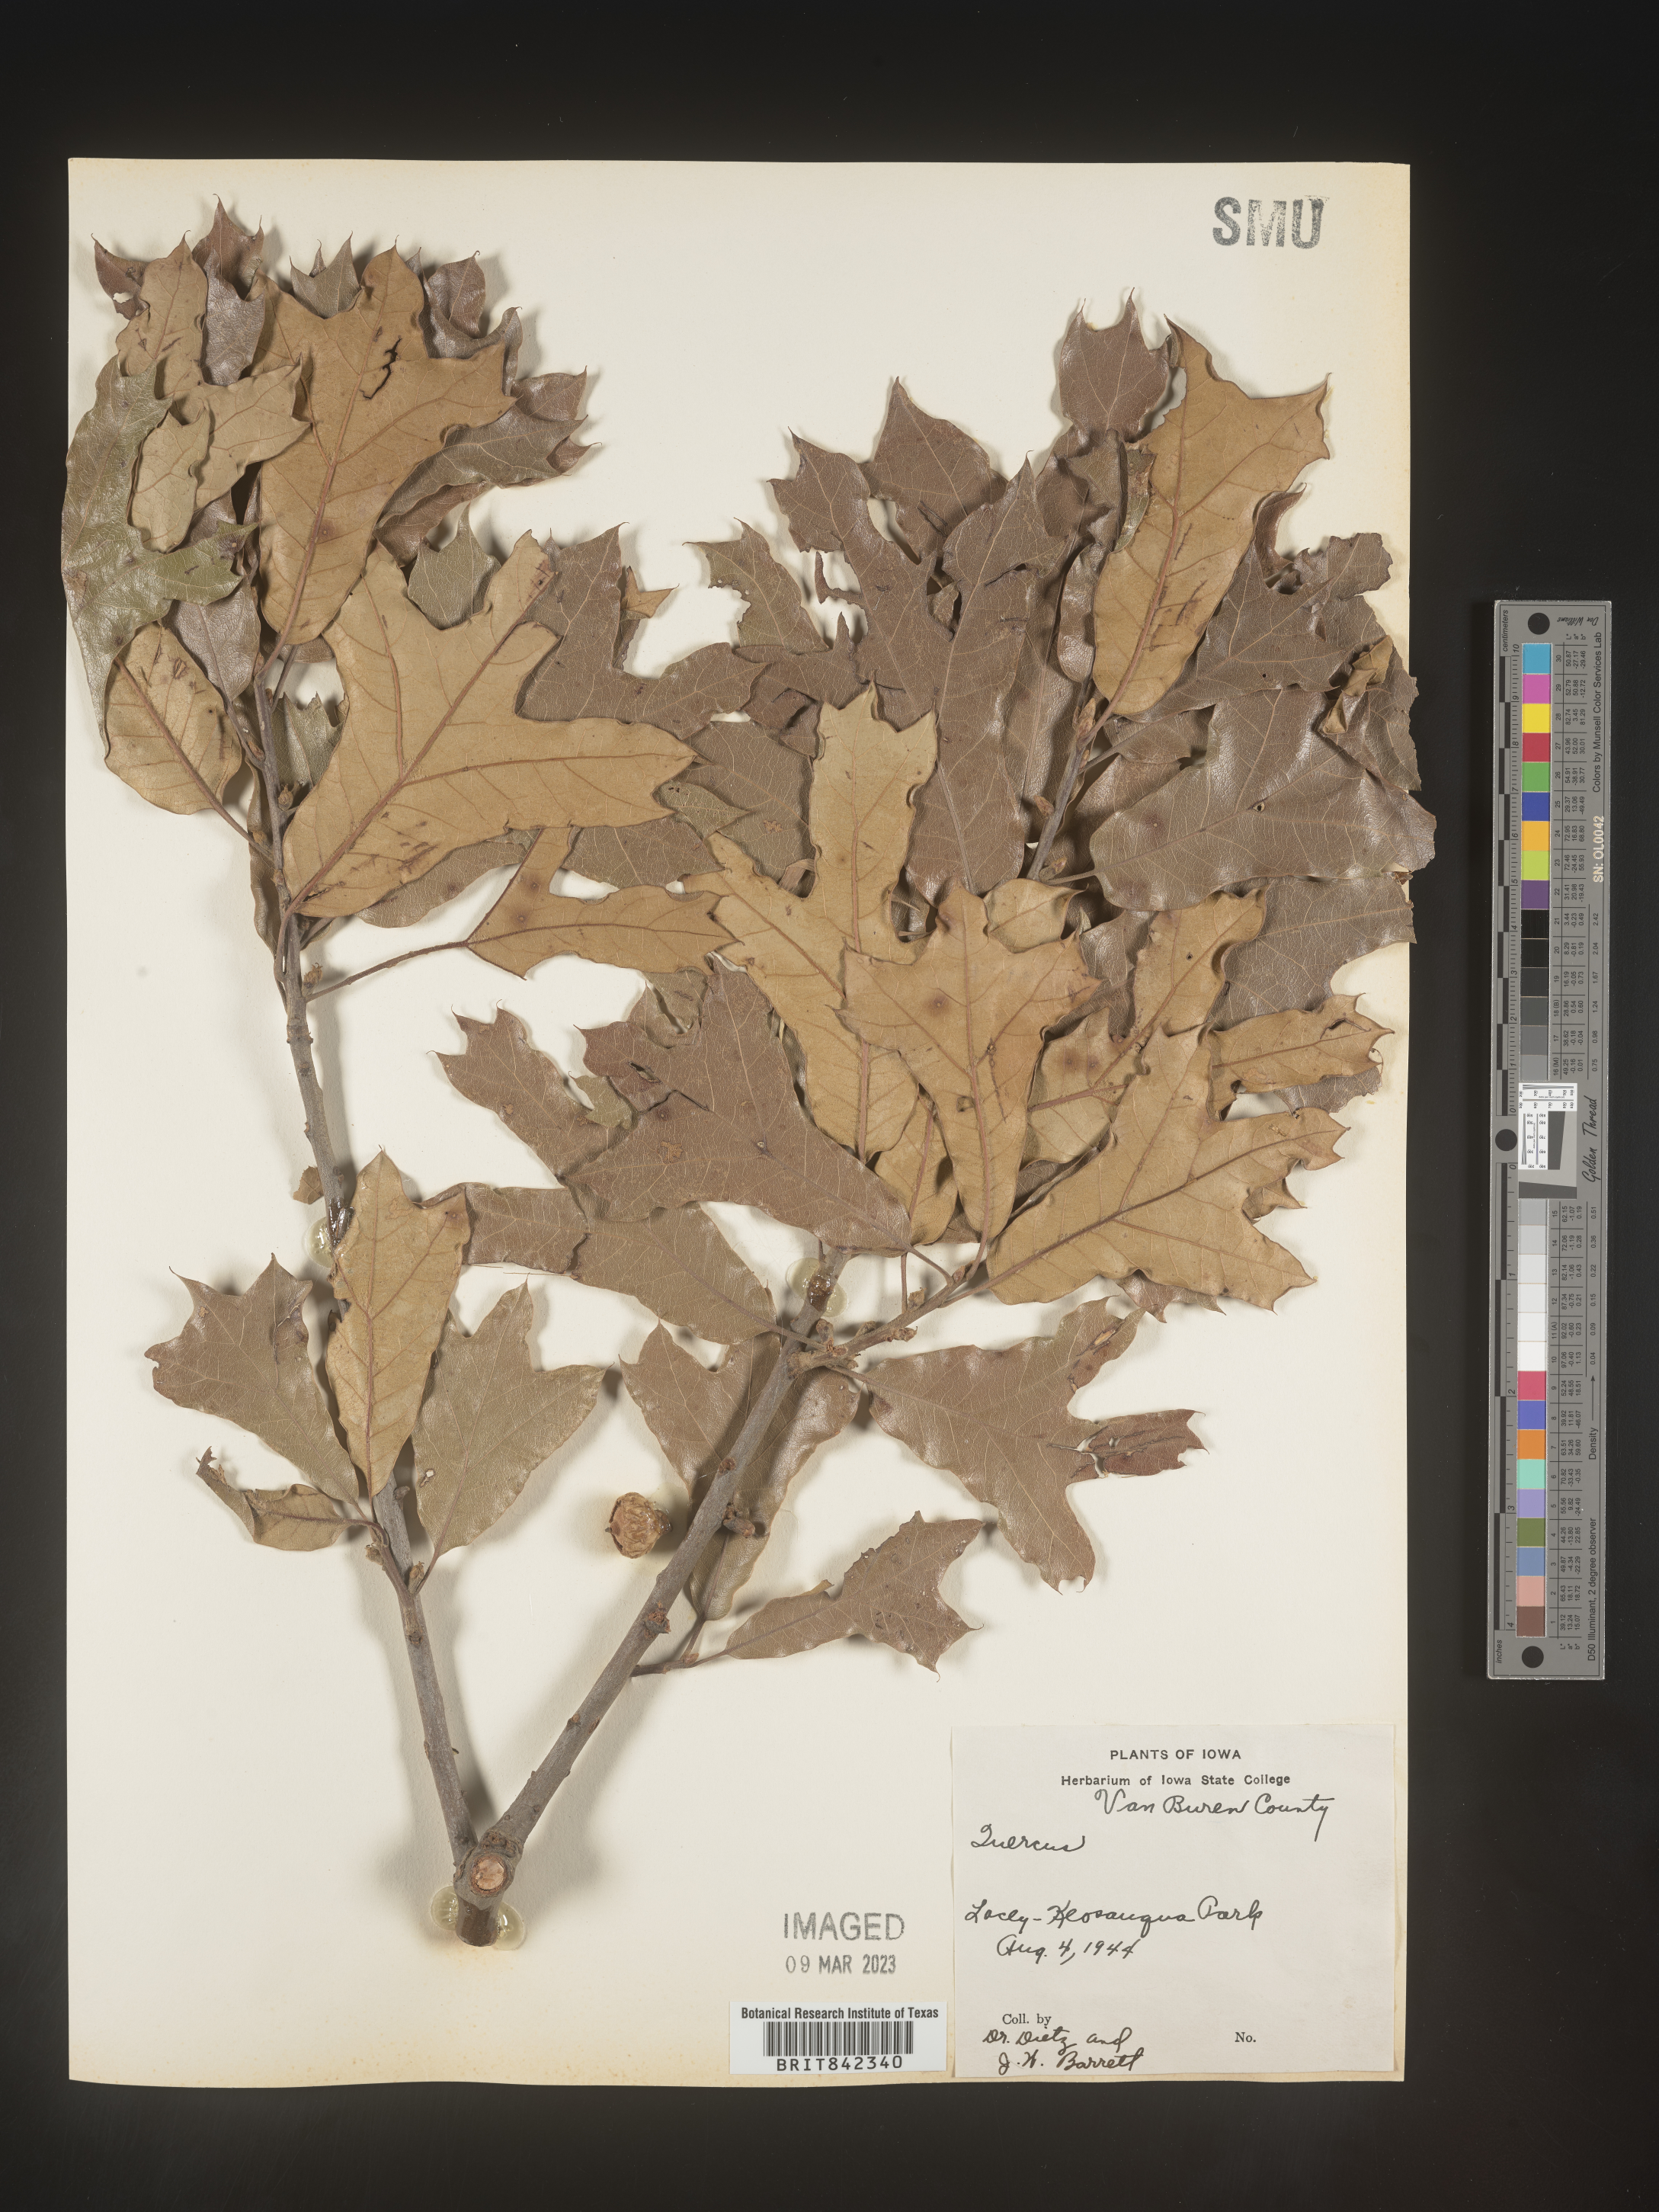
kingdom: Plantae
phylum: Tracheophyta
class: Magnoliopsida
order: Fagales
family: Fagaceae
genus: Quercus
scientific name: Quercus
